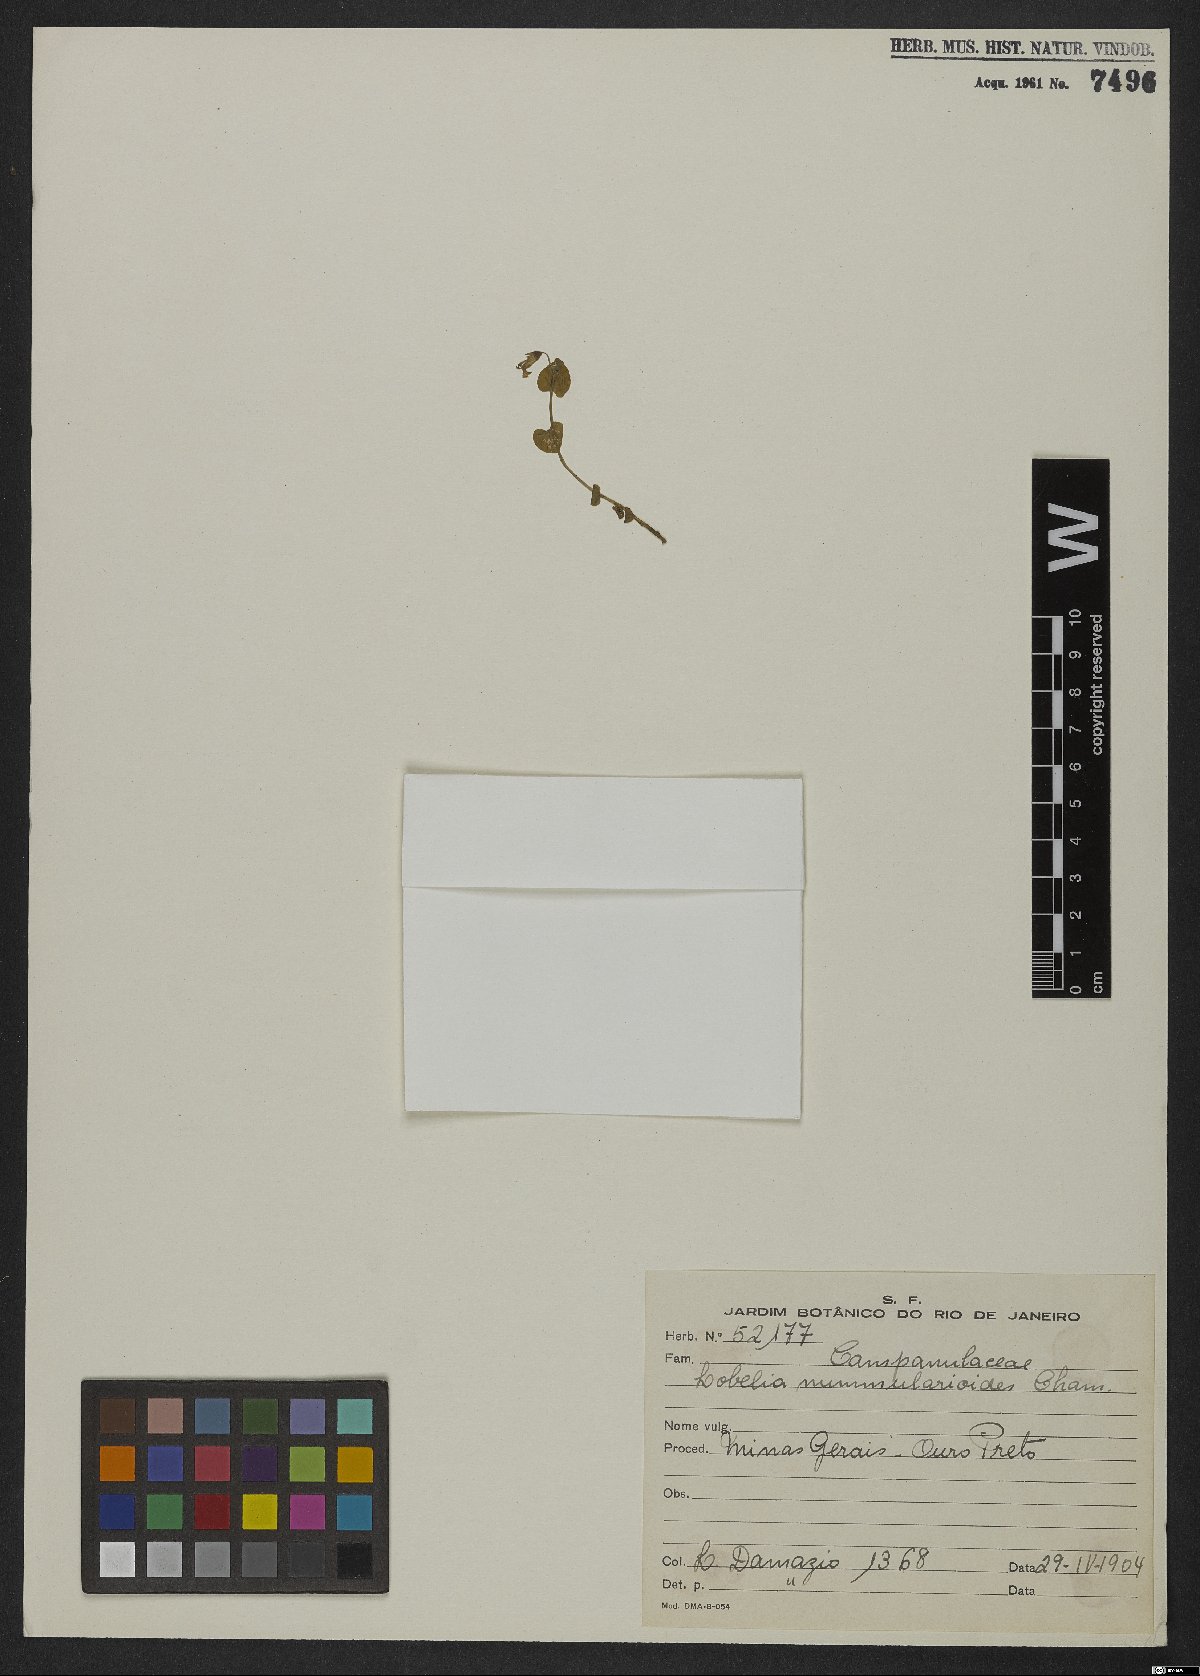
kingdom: Plantae
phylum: Tracheophyta
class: Magnoliopsida
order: Asterales
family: Campanulaceae
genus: Lobelia
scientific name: Lobelia nummularioides
